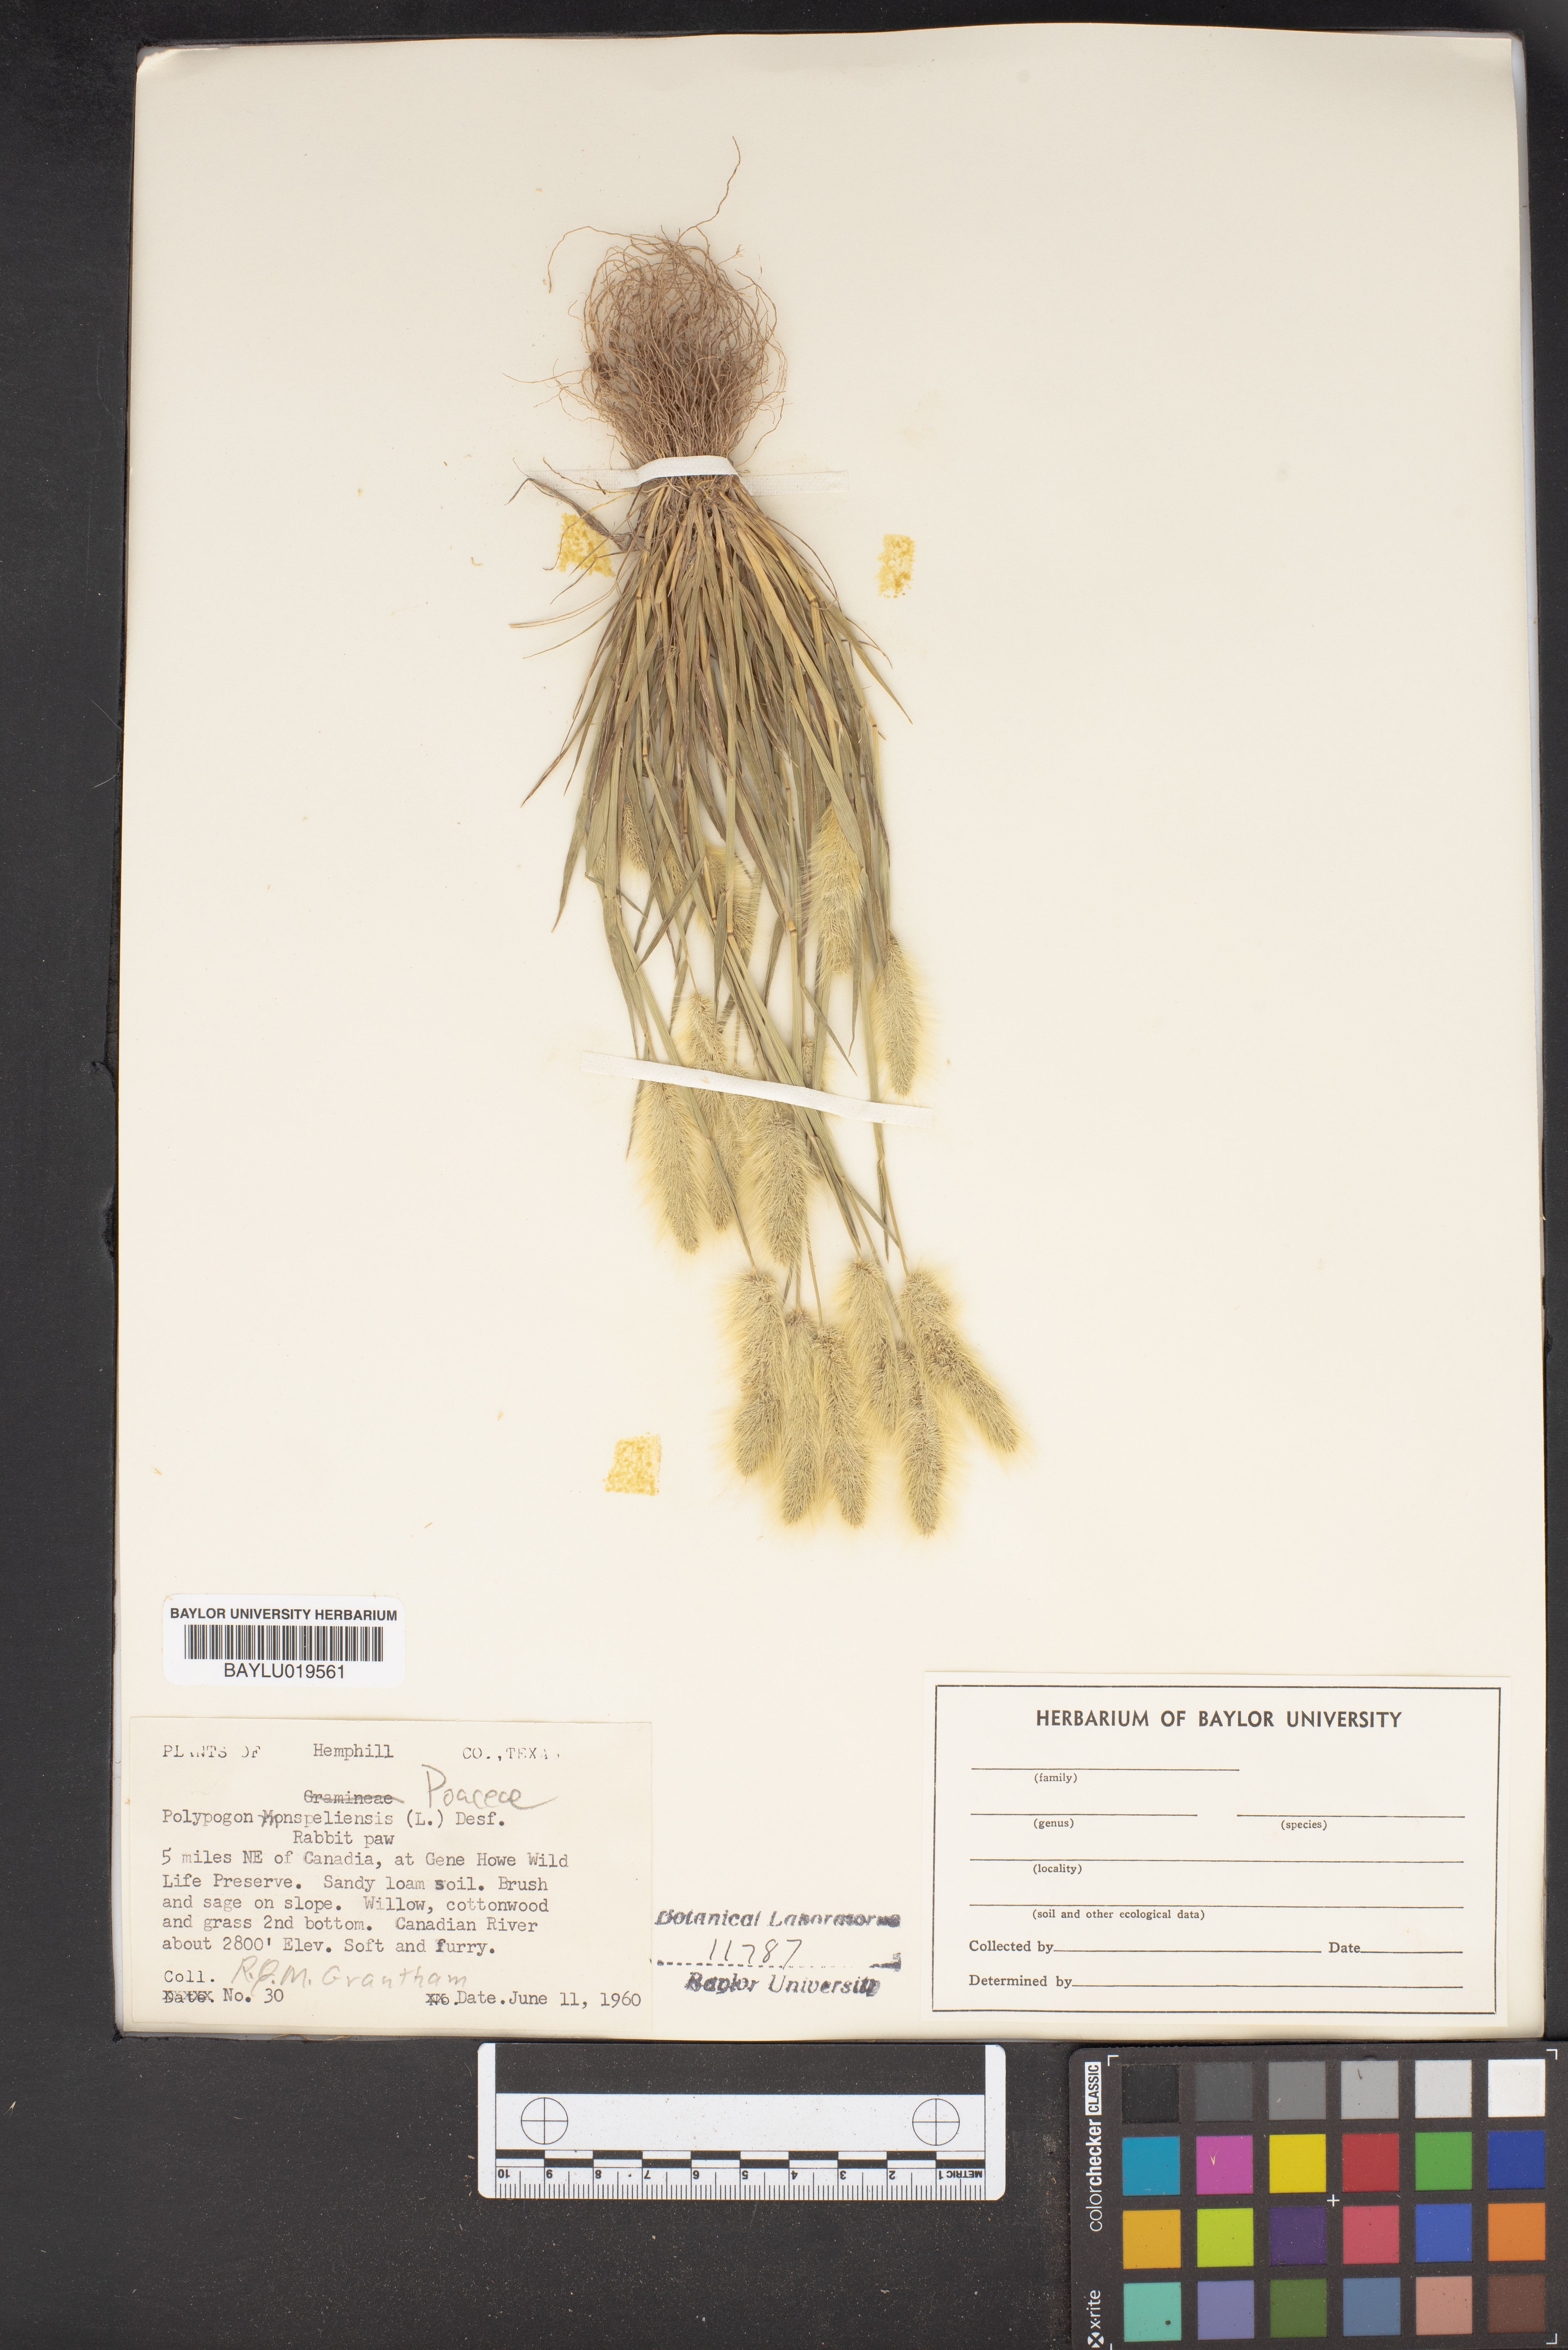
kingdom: Plantae
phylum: Tracheophyta
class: Liliopsida
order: Poales
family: Poaceae
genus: Polypogon
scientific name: Polypogon monspeliensis
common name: Annual rabbitsfoot grass
